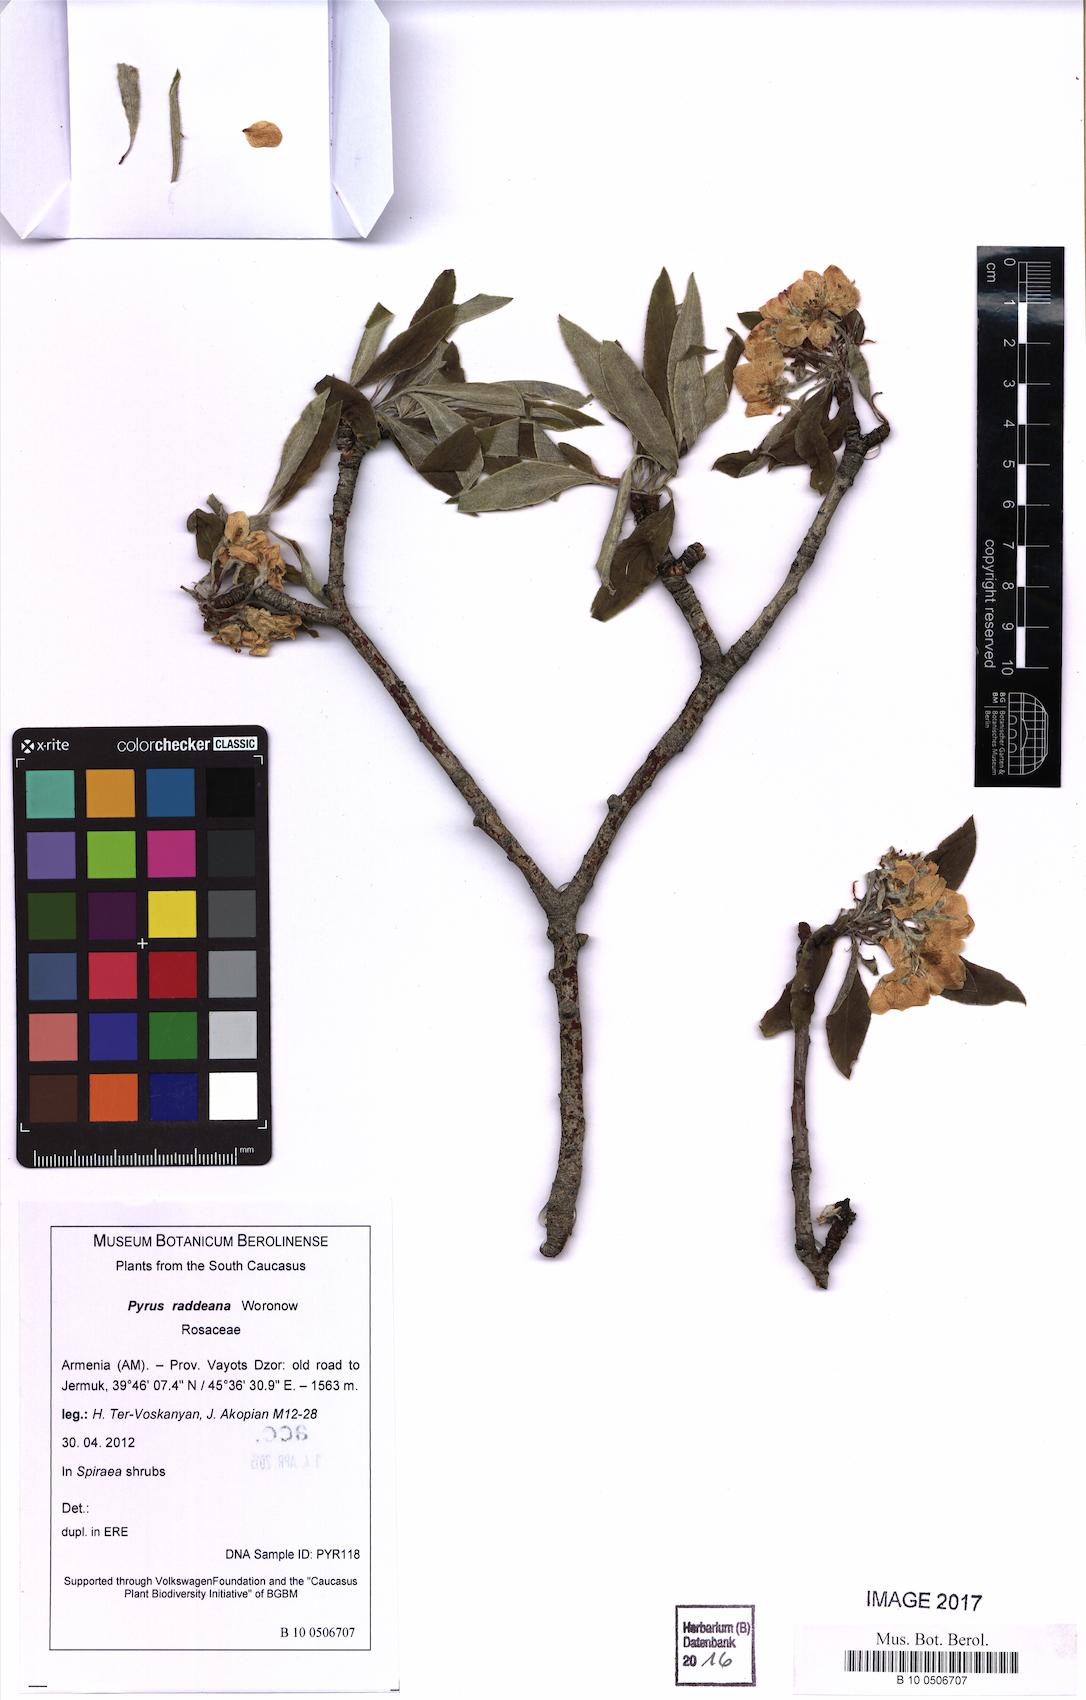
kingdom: Plantae
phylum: Tracheophyta
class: Magnoliopsida
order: Rosales
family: Rosaceae
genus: Pyrus
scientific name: Pyrus raddeana
